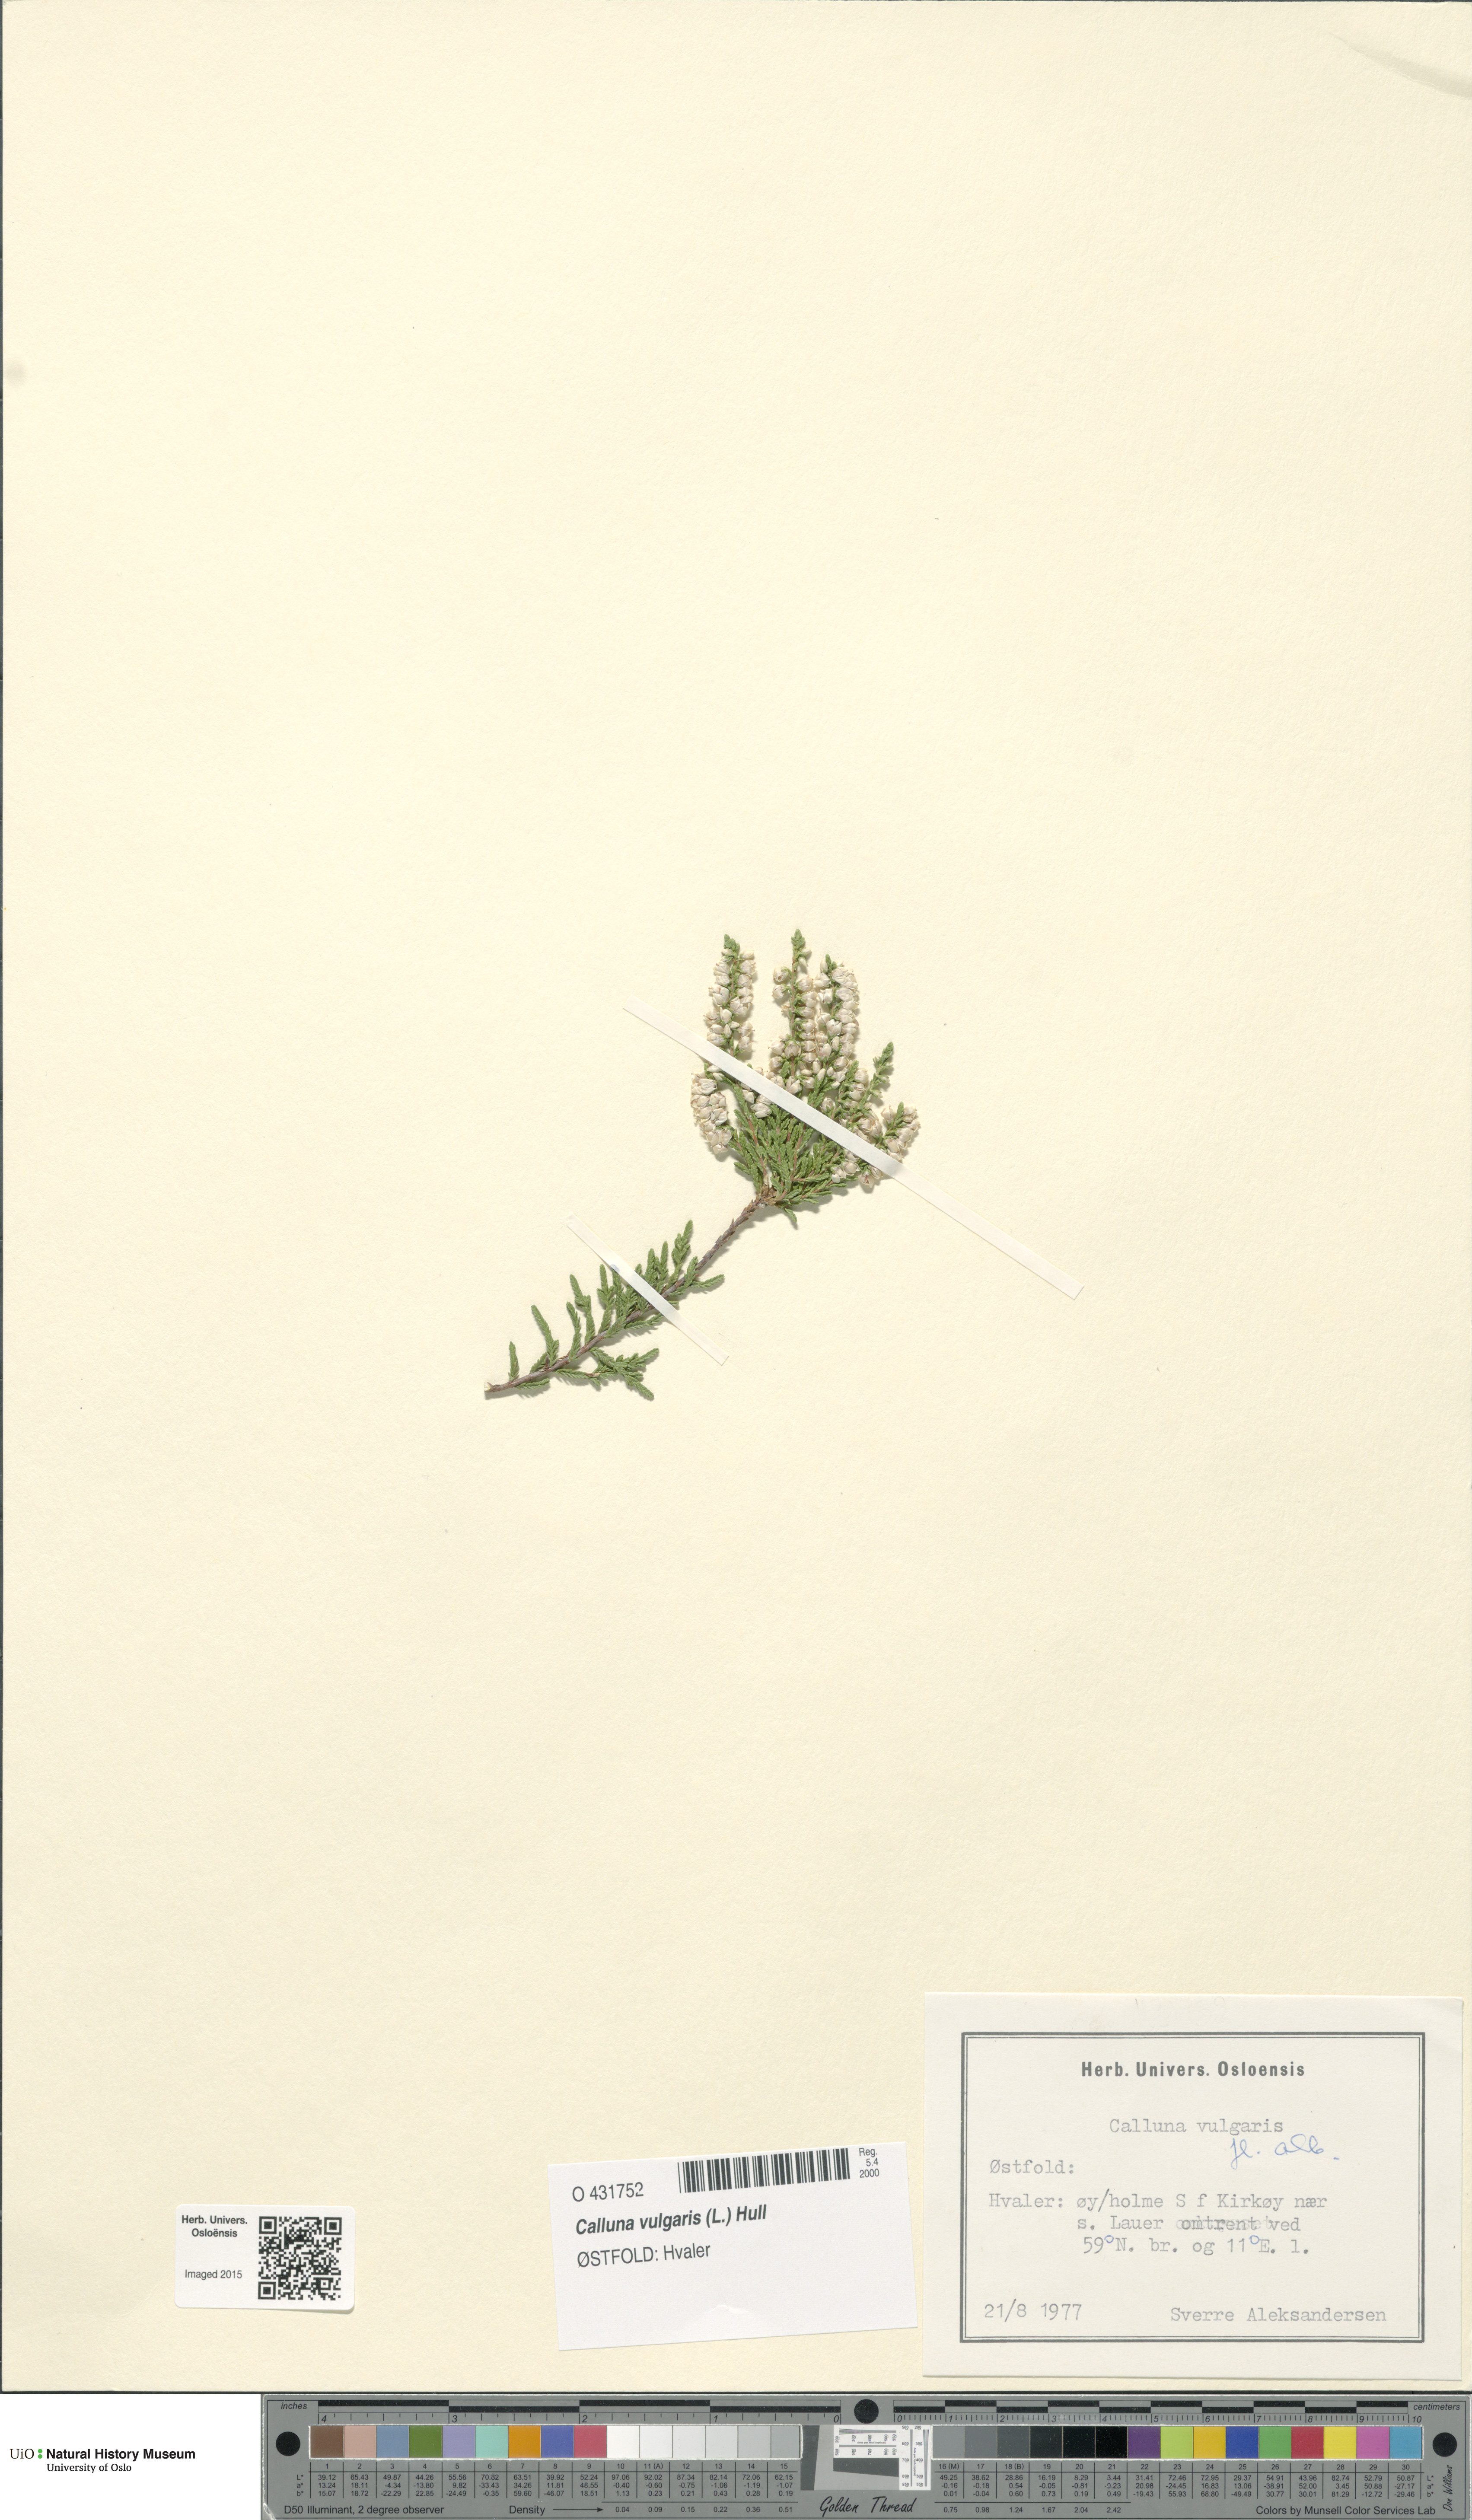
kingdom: Plantae
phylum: Tracheophyta
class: Magnoliopsida
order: Ericales
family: Ericaceae
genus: Calluna
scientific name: Calluna vulgaris
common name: Heather
